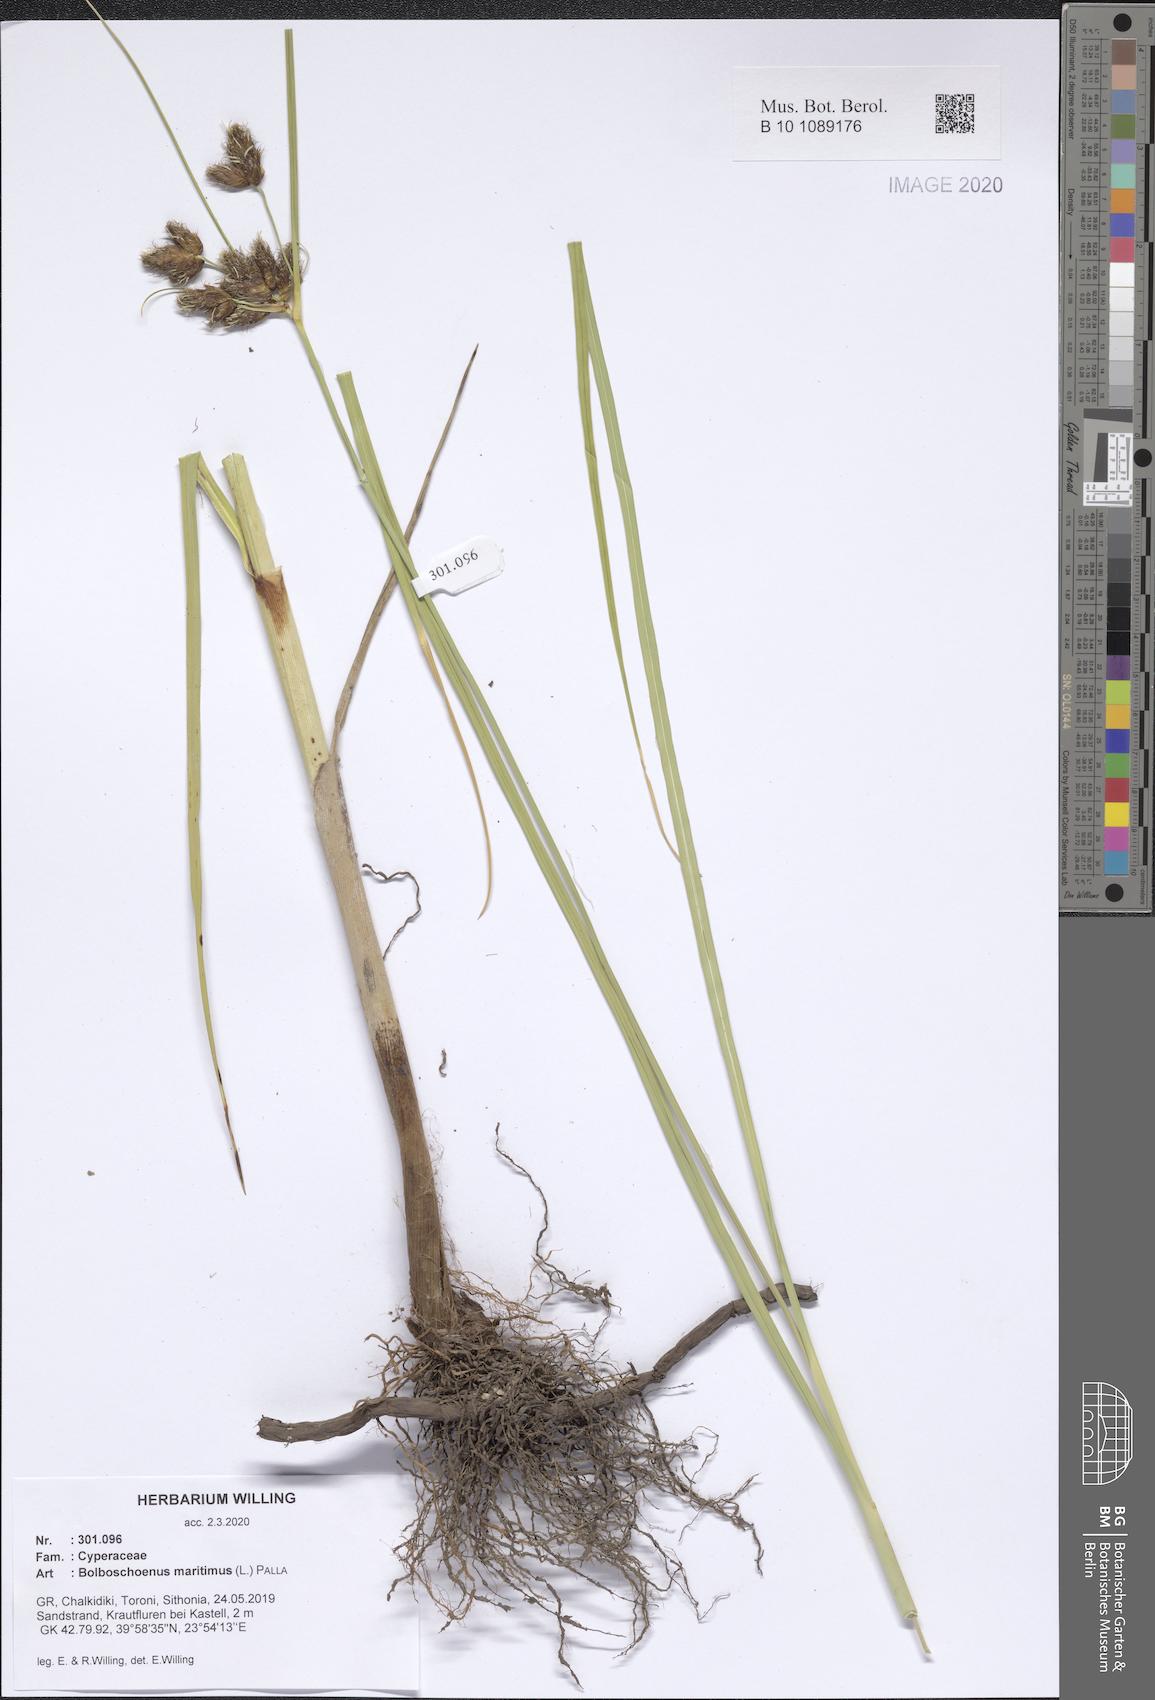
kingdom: Plantae
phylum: Tracheophyta
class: Liliopsida
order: Poales
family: Cyperaceae
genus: Bolboschoenus
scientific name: Bolboschoenus maritimus
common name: Sea club-rush
